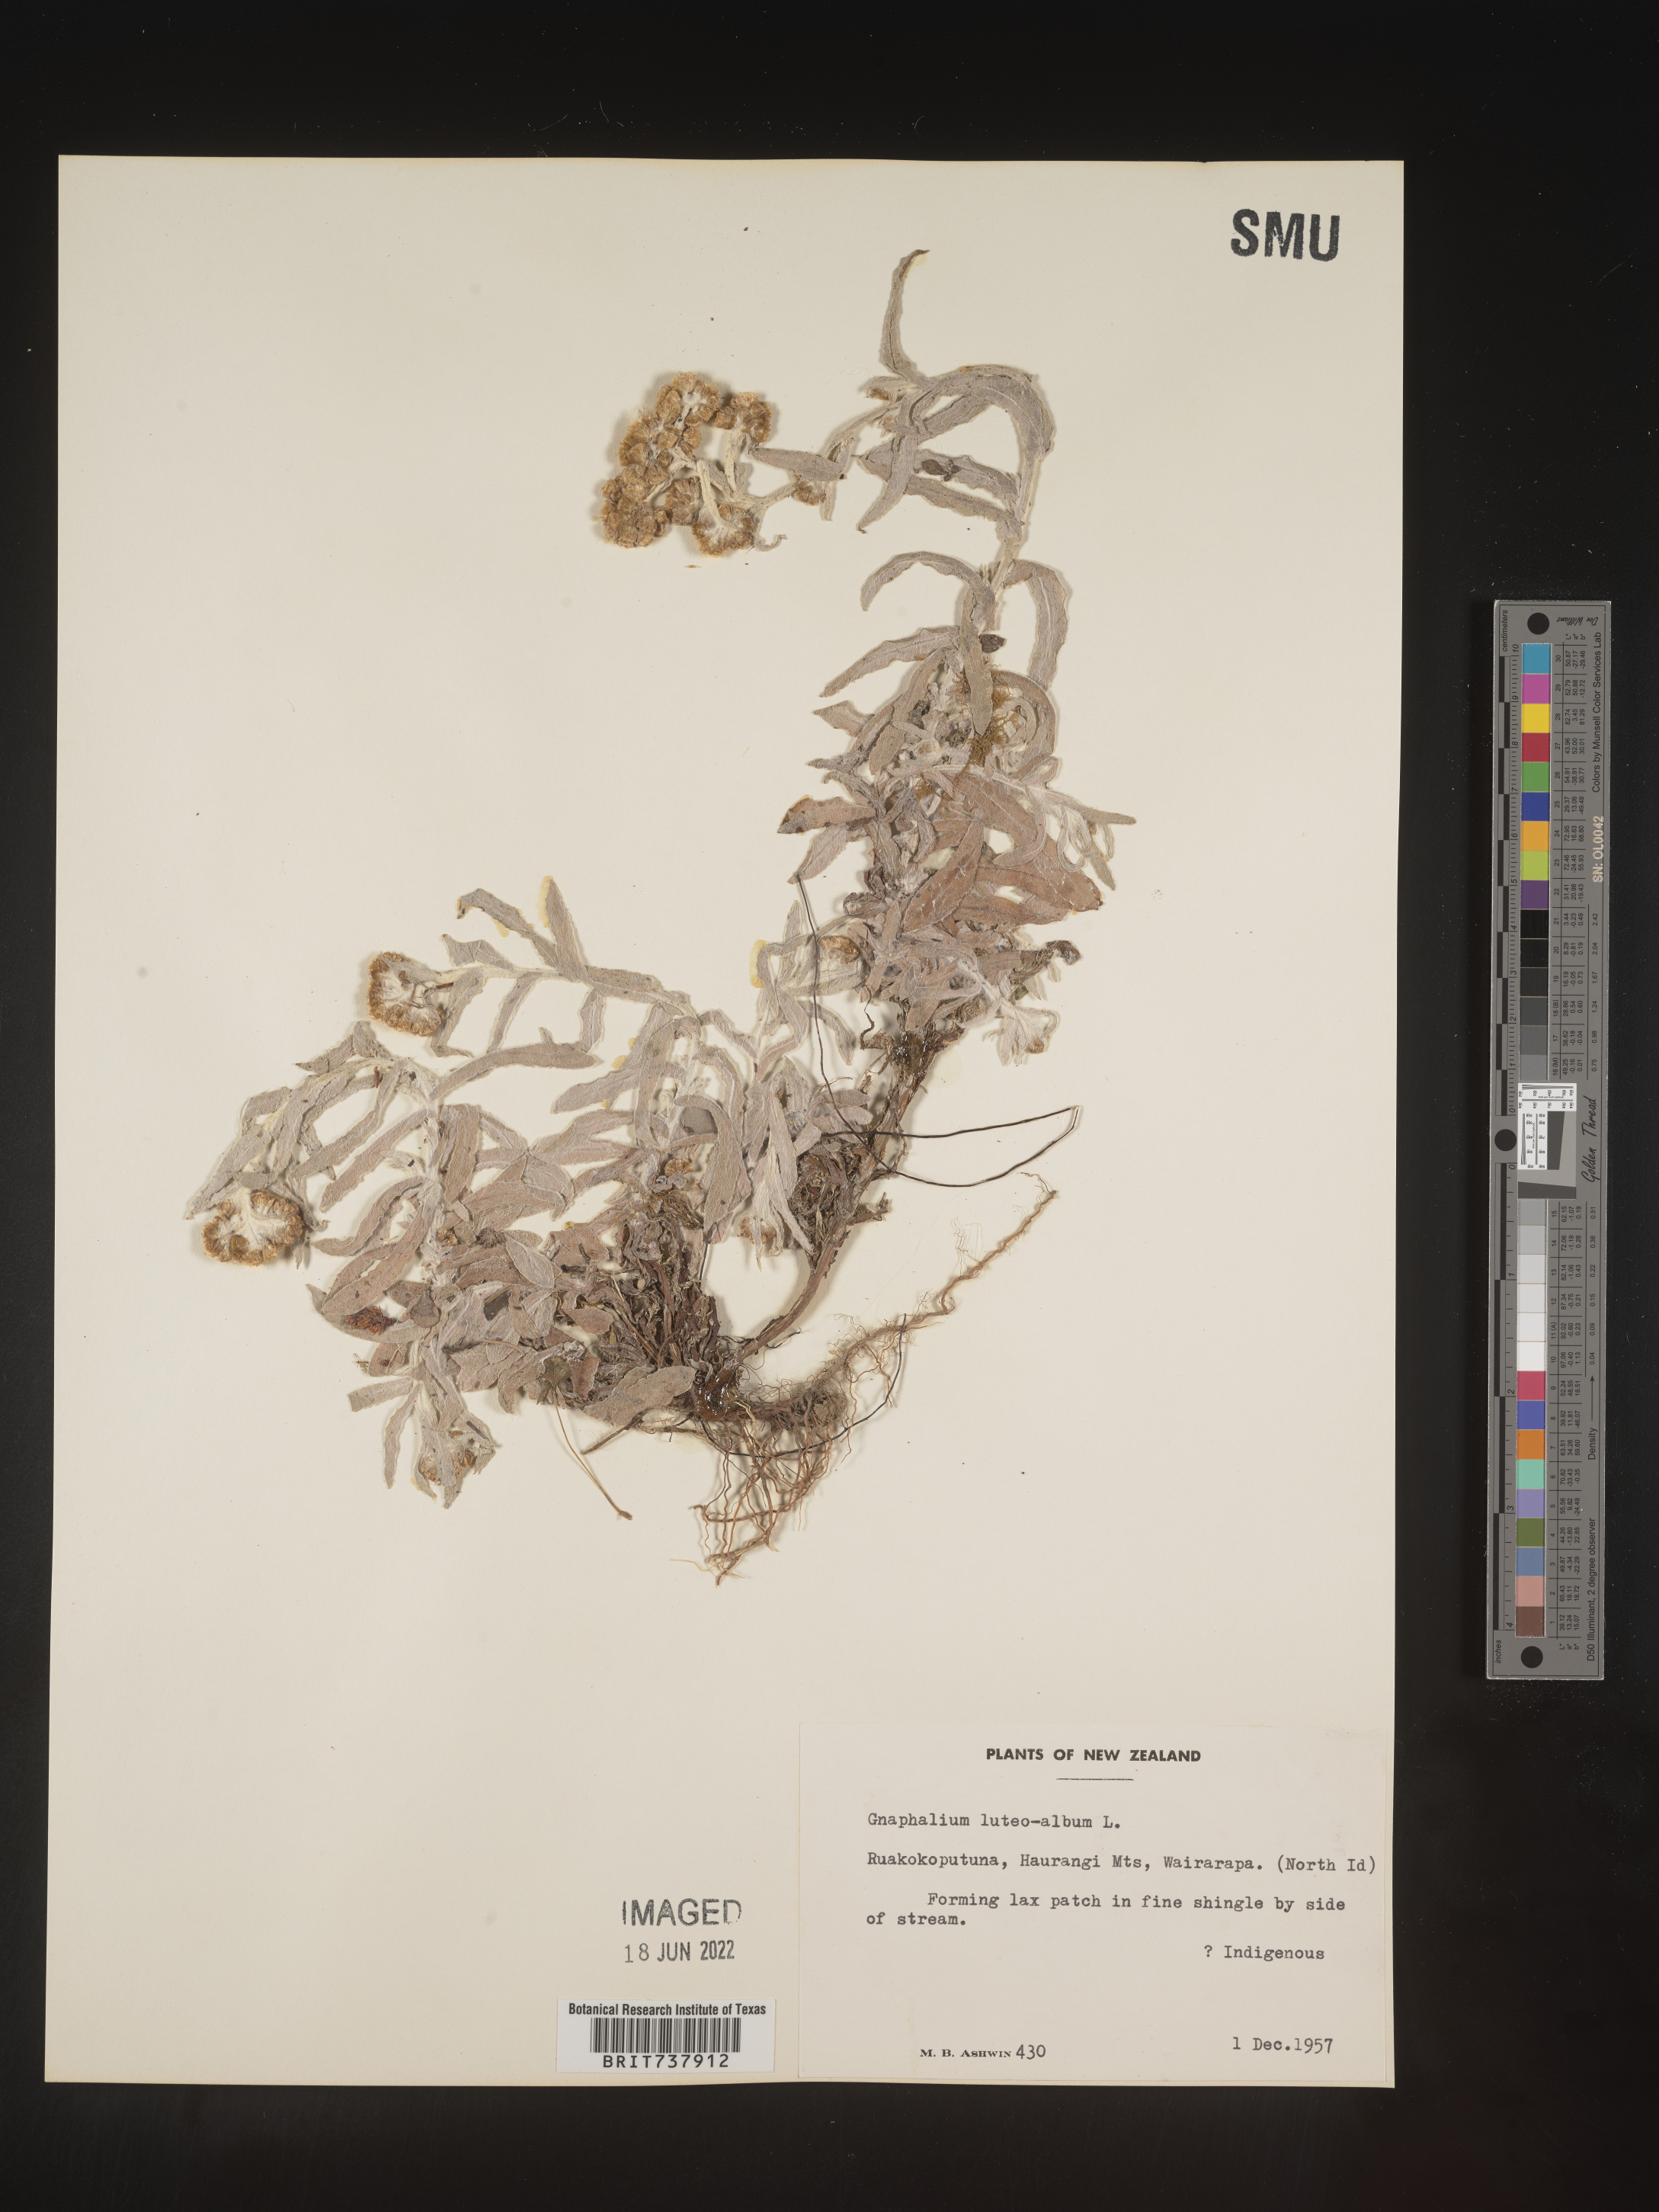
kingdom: Plantae
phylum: Tracheophyta
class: Magnoliopsida
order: Asterales
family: Asteraceae
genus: Pseudognaphalium
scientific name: Pseudognaphalium
